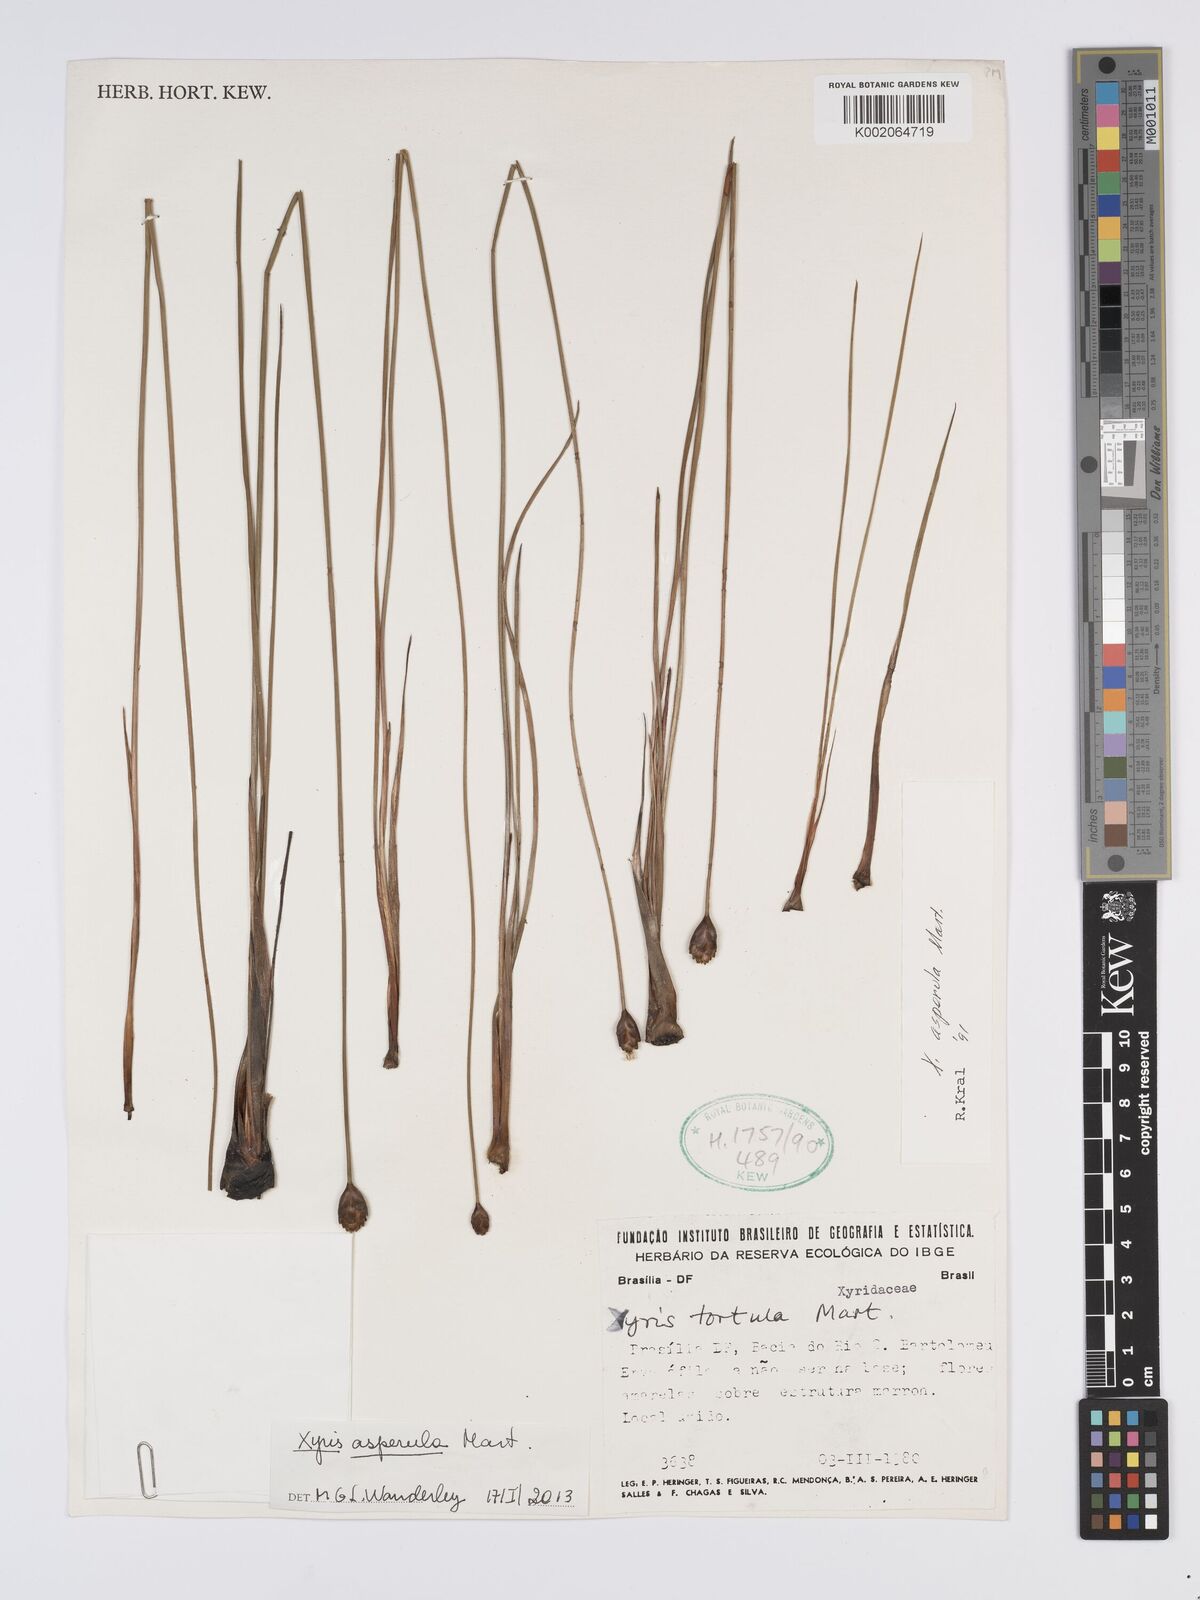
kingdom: Plantae
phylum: Tracheophyta
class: Liliopsida
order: Poales
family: Xyridaceae
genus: Xyris
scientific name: Xyris asperula
